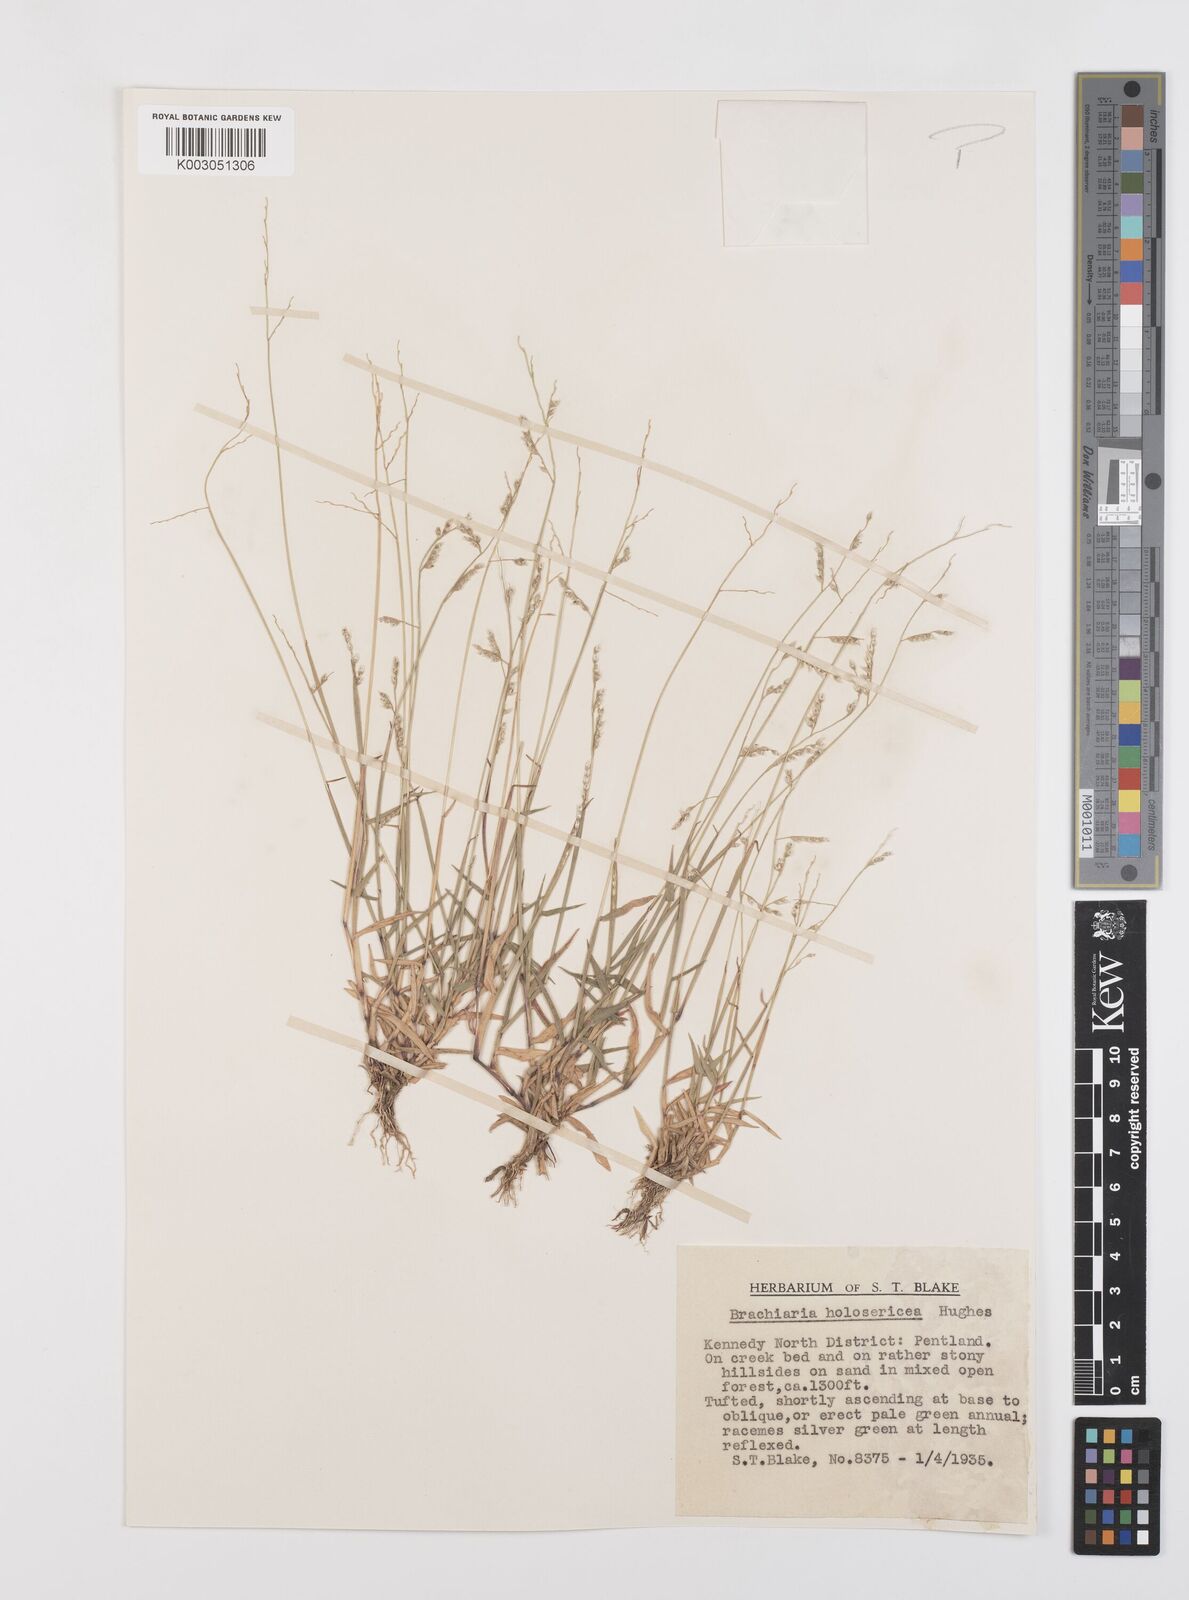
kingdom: Plantae
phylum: Tracheophyta
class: Liliopsida
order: Poales
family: Poaceae
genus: Urochloa
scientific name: Urochloa holosericea
